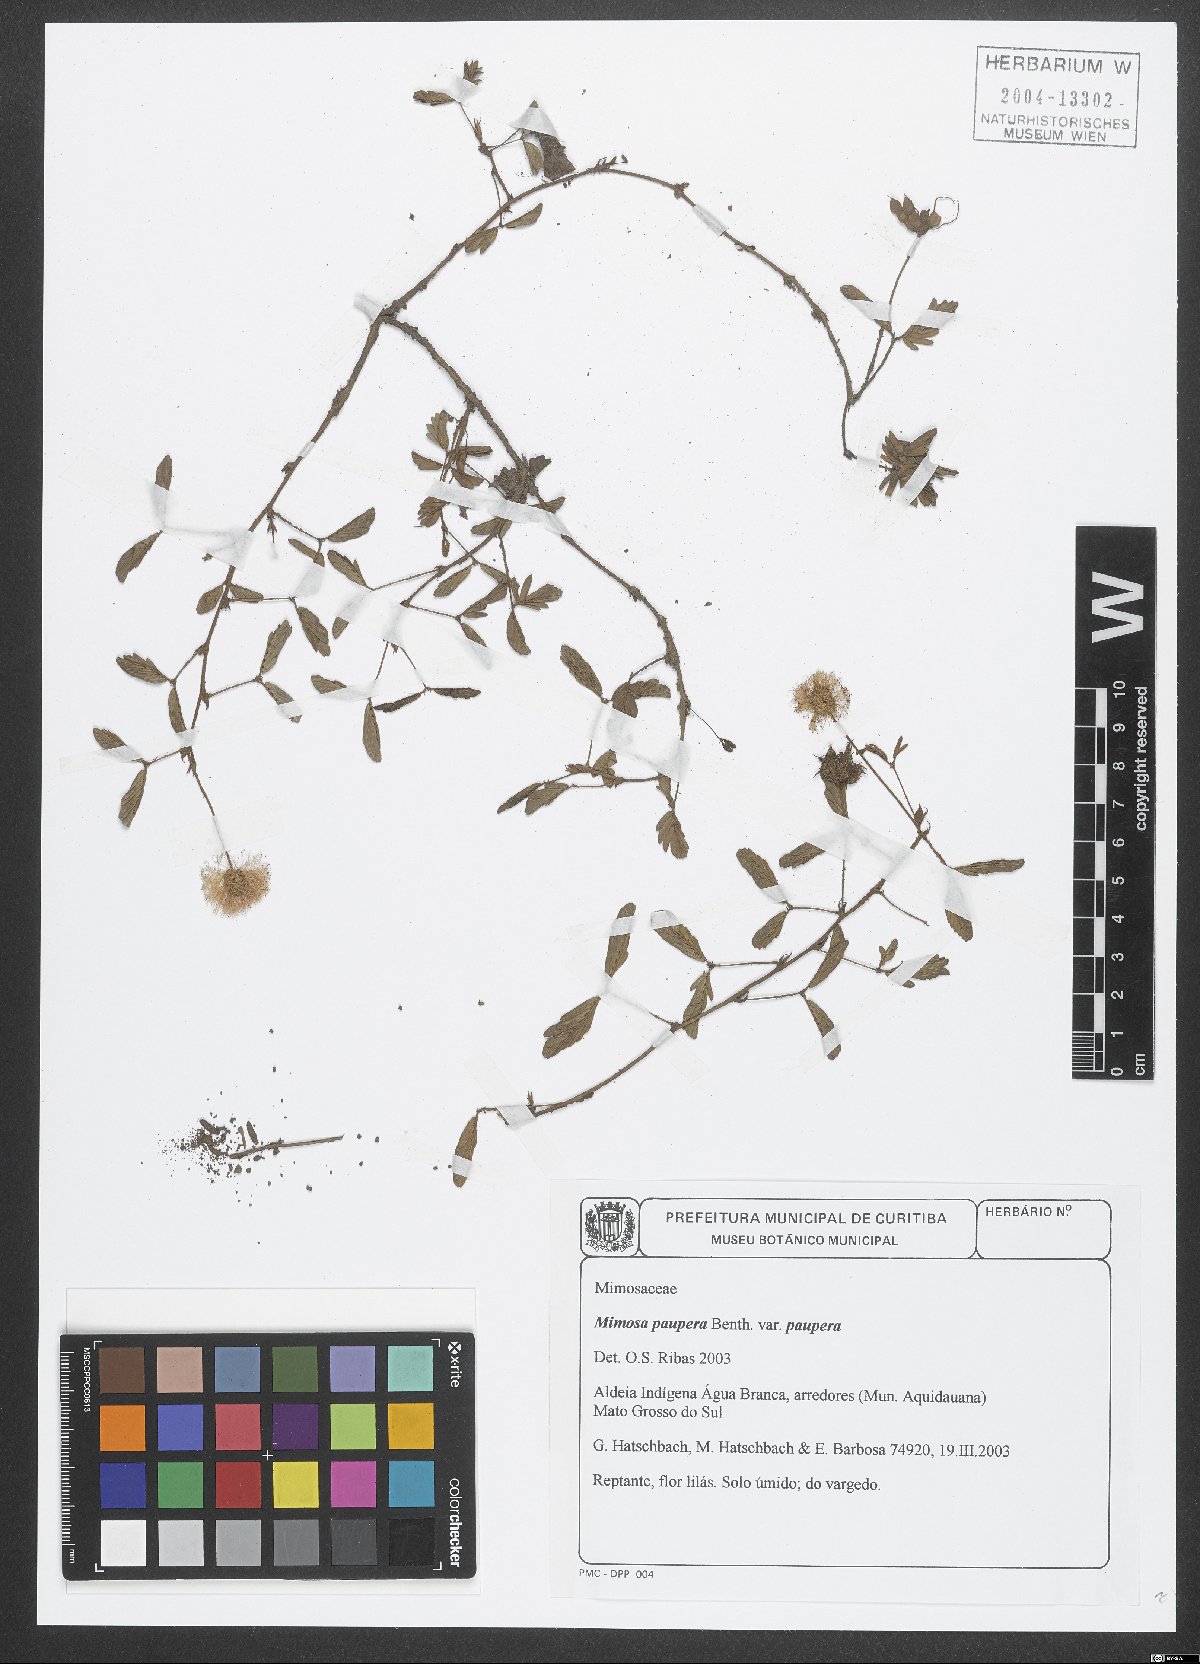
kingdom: Plantae
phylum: Tracheophyta
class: Magnoliopsida
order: Fabales
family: Fabaceae
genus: Mimosa
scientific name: Mimosa paupera
